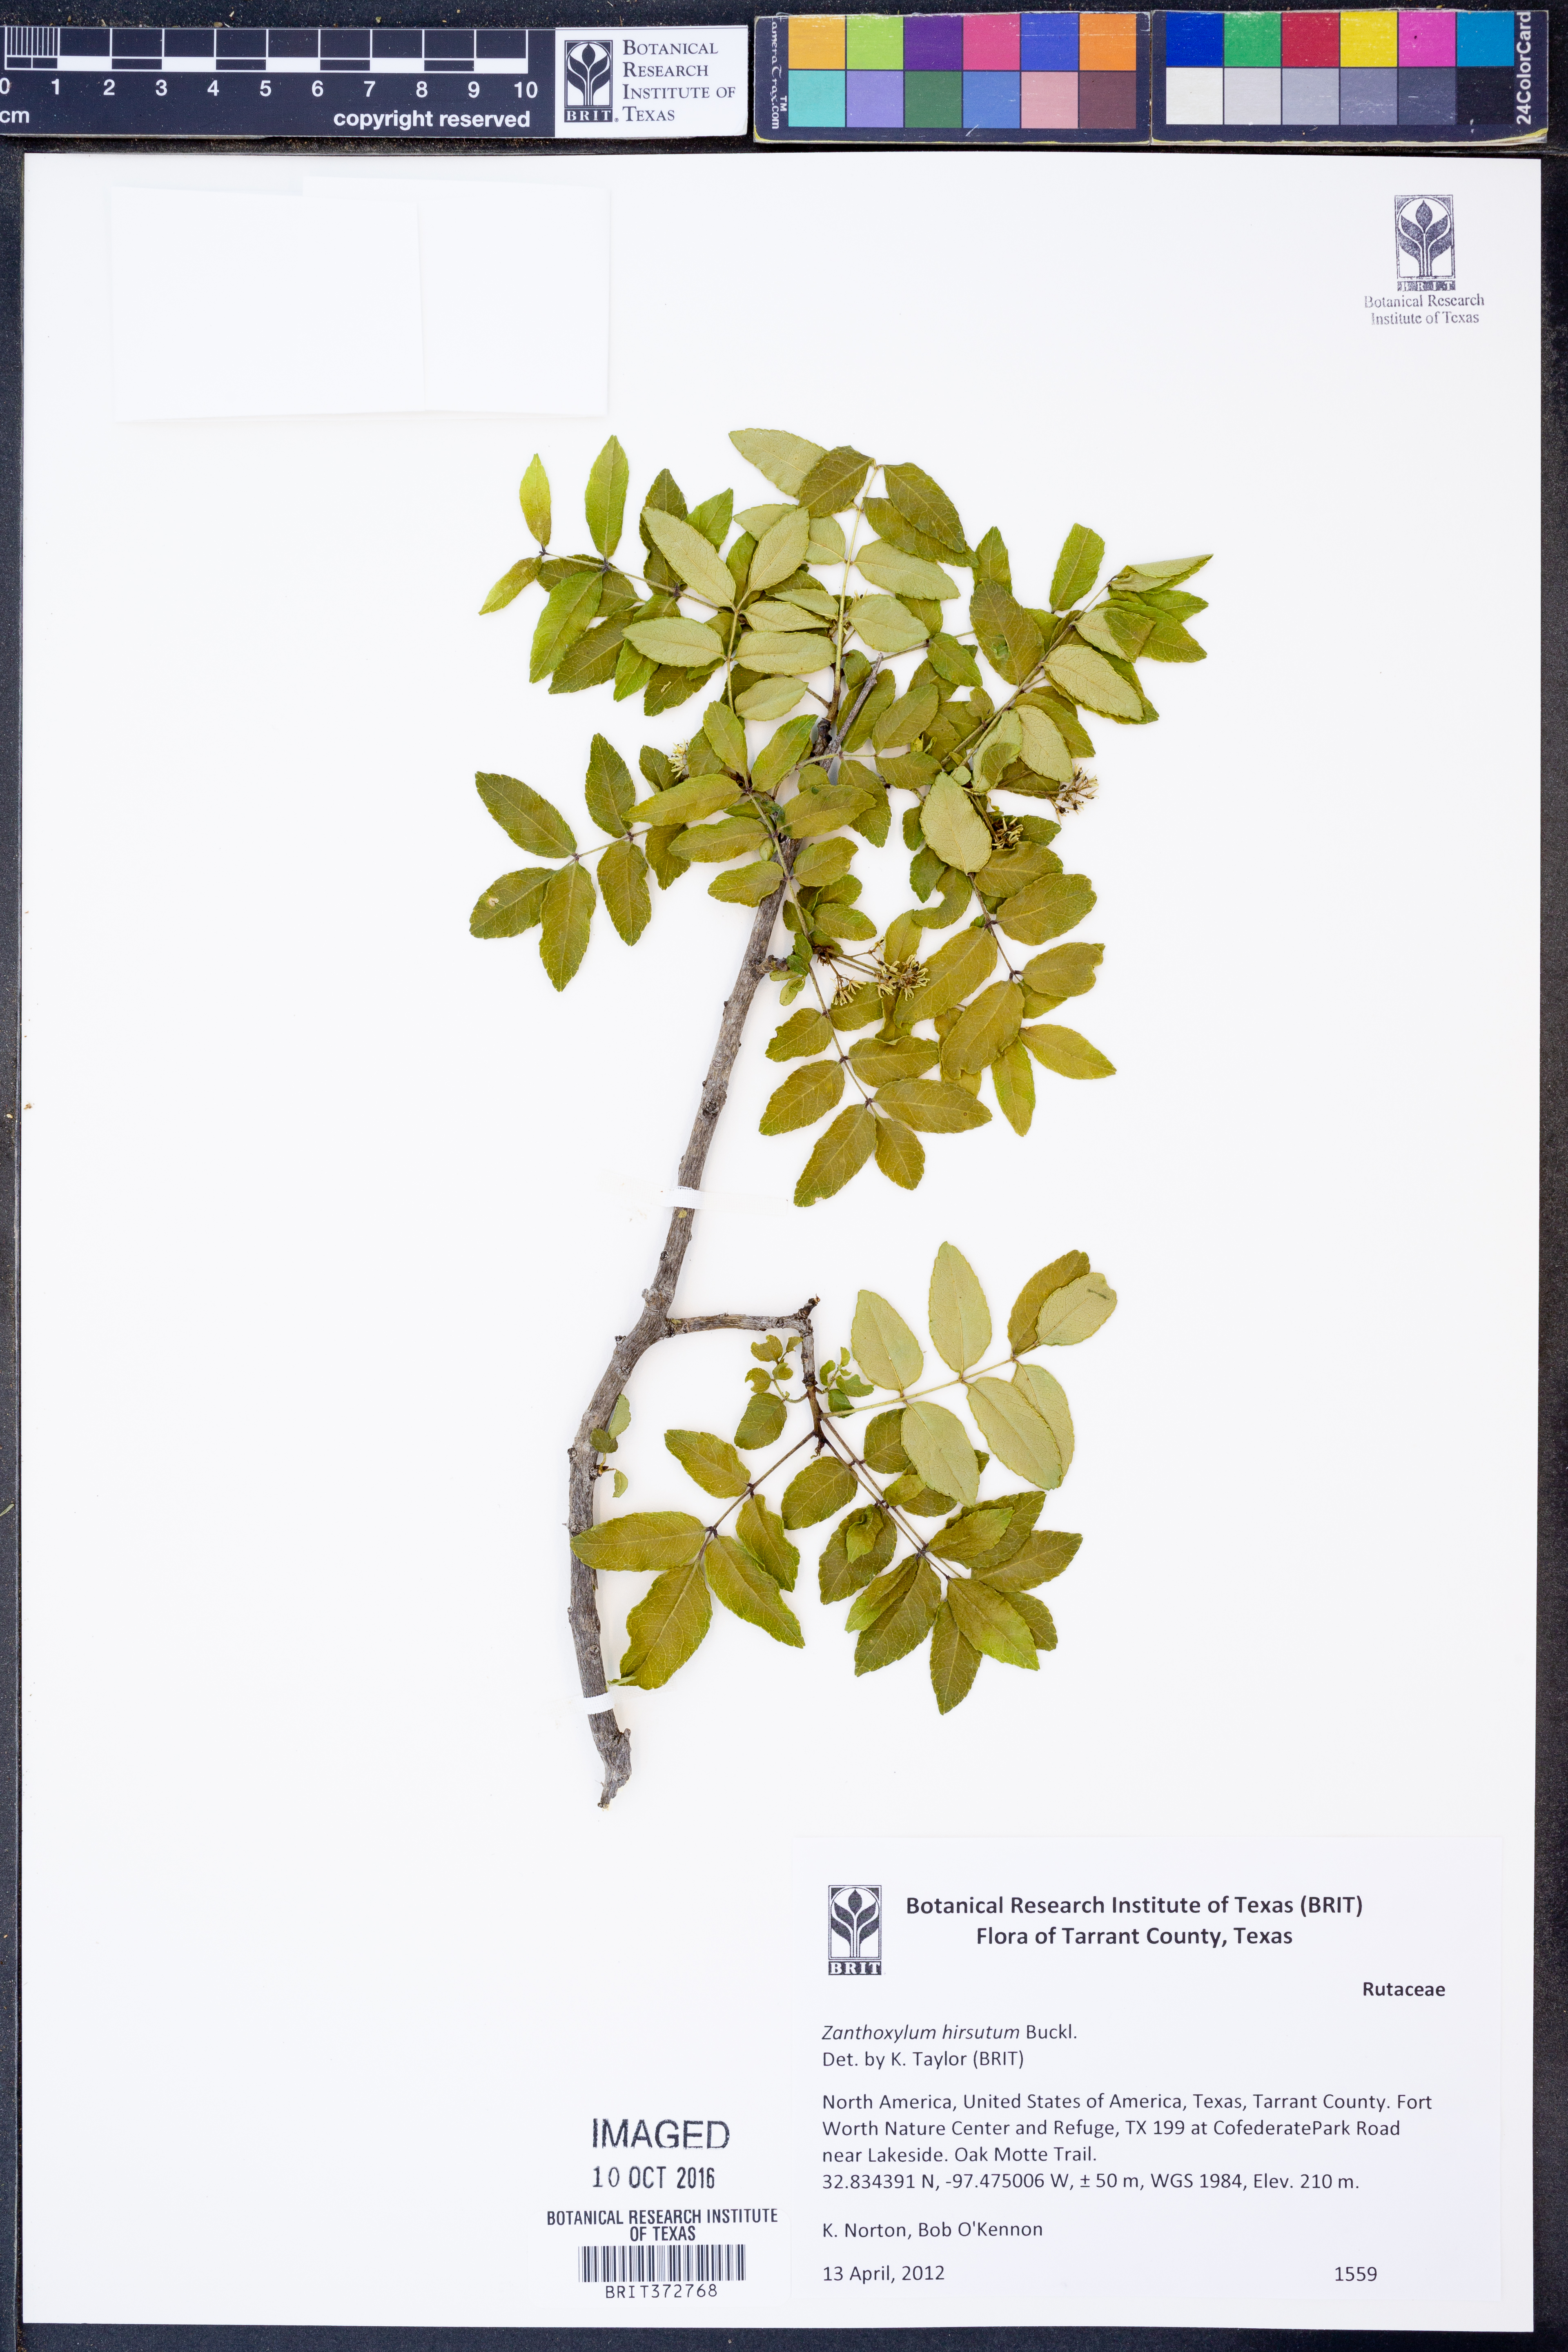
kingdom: Plantae
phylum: Tracheophyta
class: Magnoliopsida
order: Sapindales
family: Rutaceae
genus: Zanthoxylum
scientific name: Zanthoxylum clava-herculis
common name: Hercules'-club
